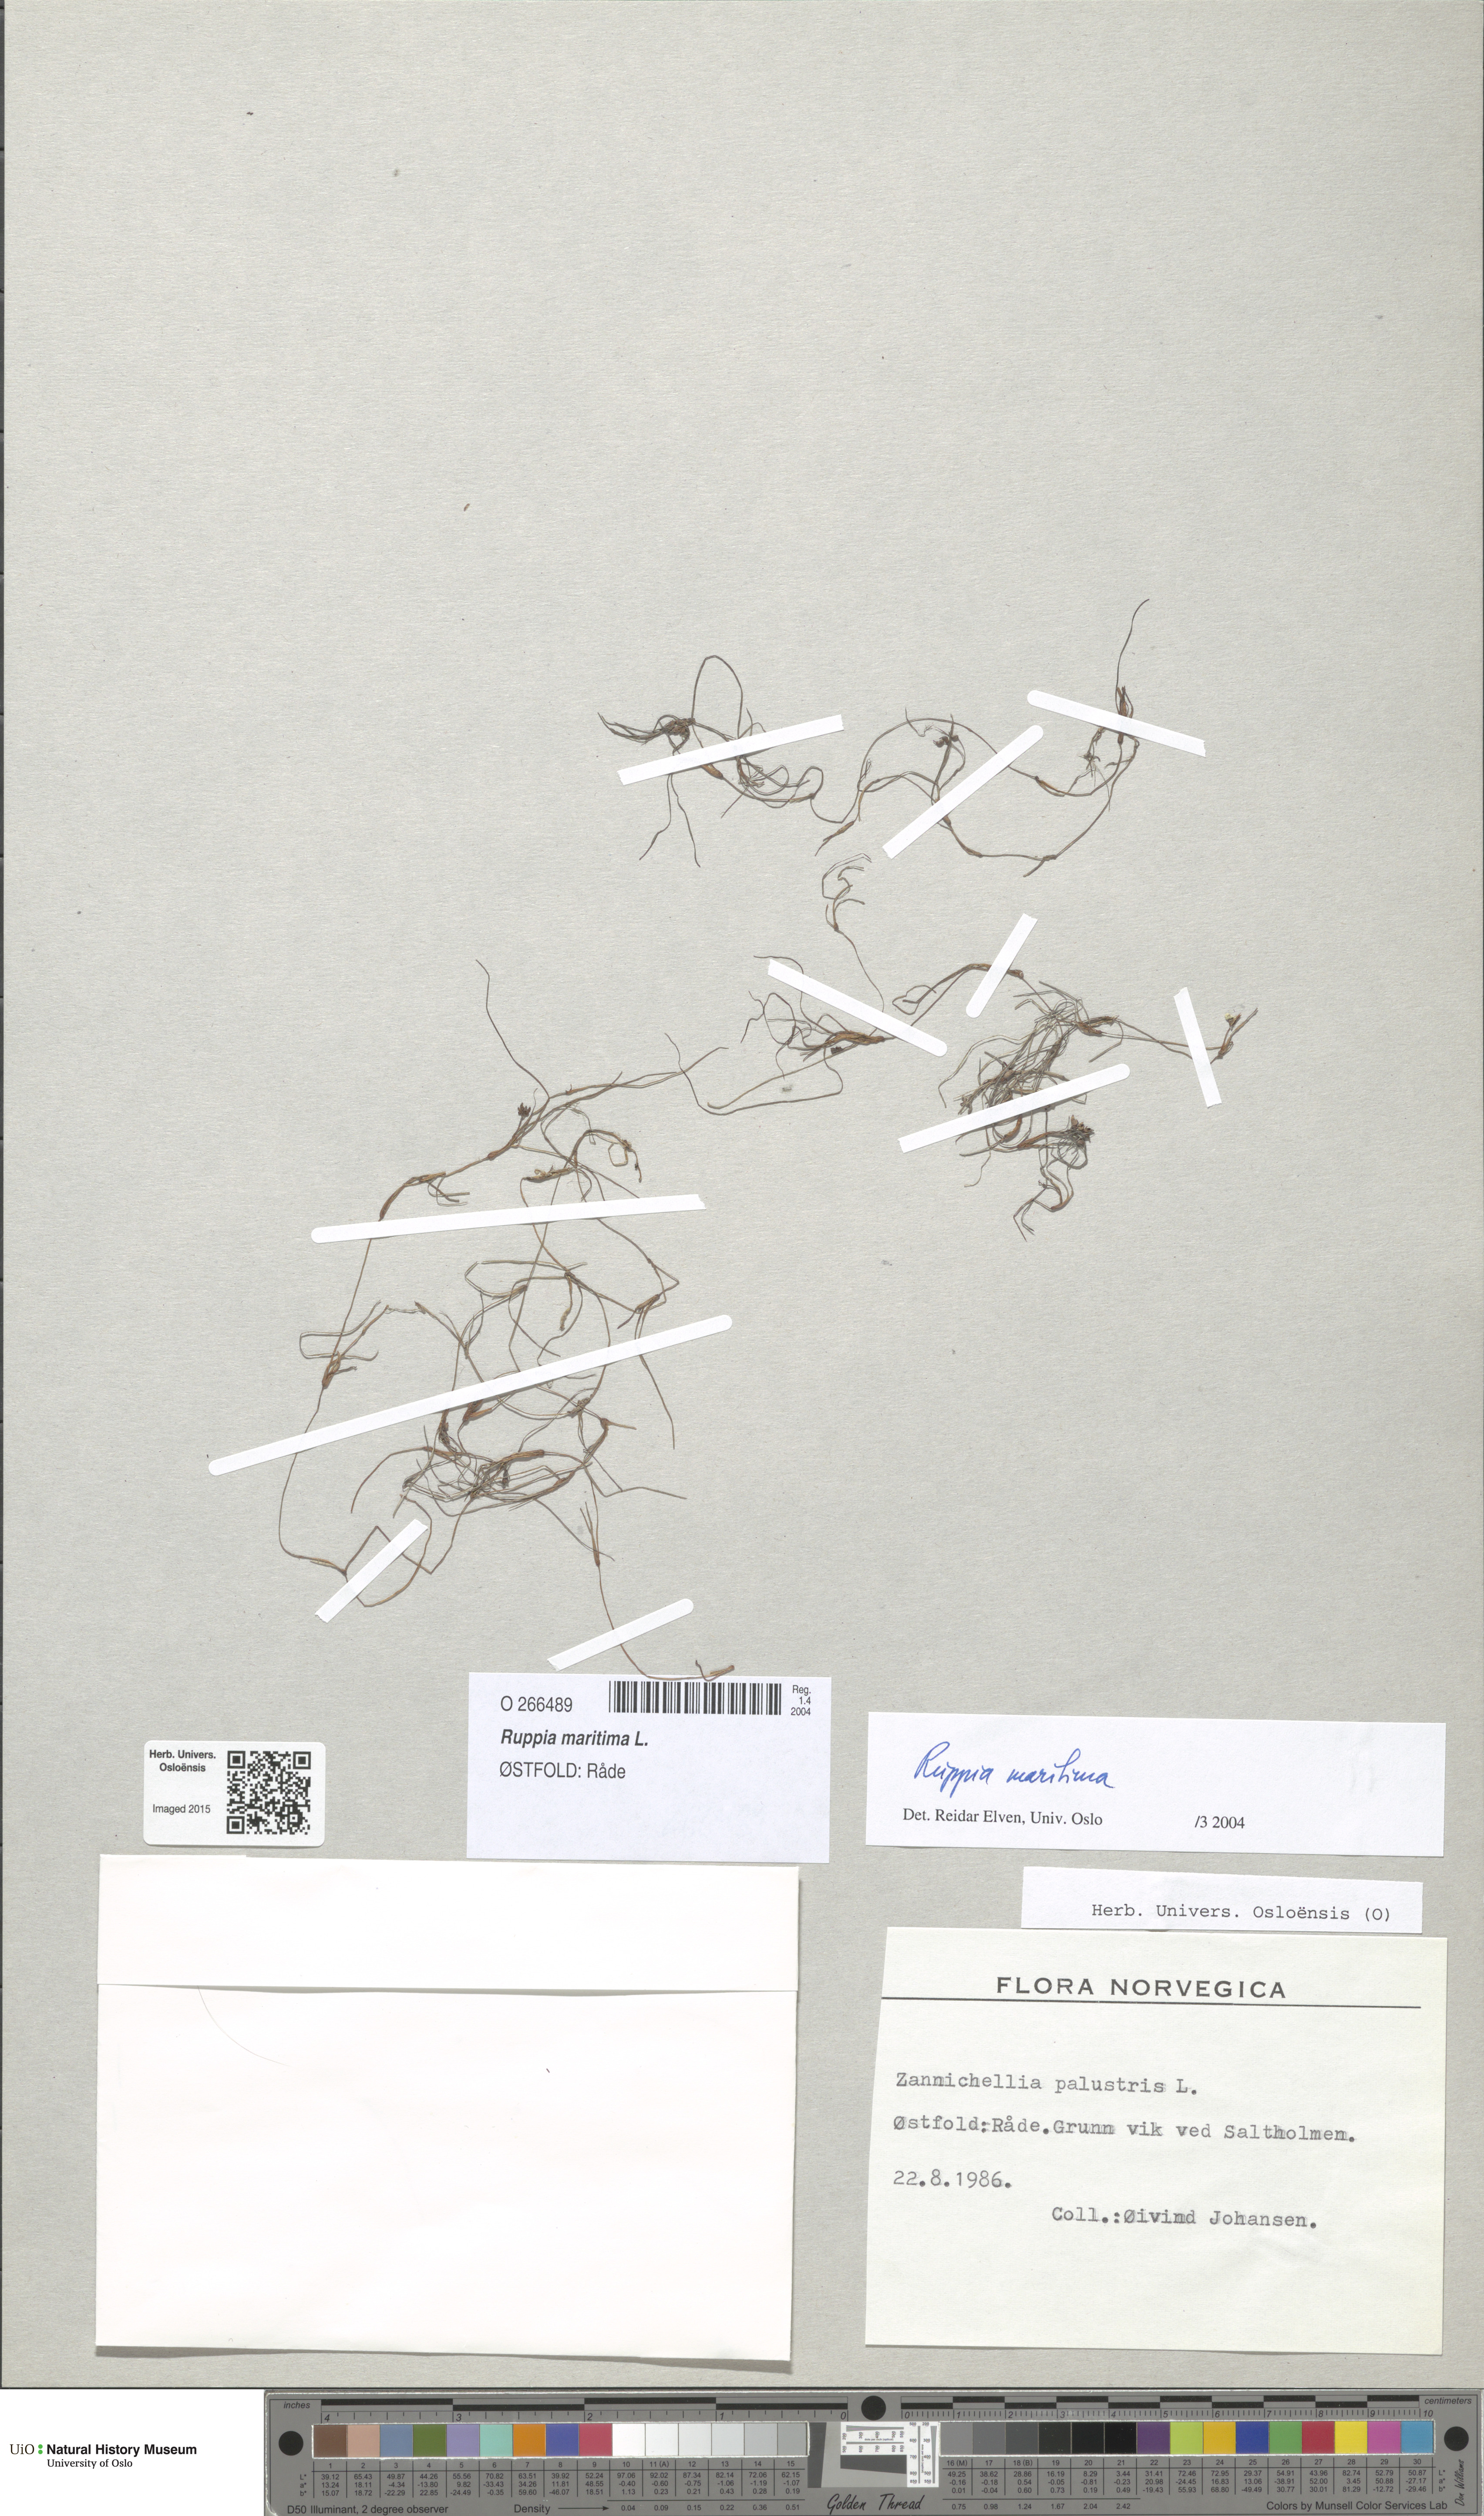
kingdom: Plantae
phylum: Tracheophyta
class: Liliopsida
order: Alismatales
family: Ruppiaceae
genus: Ruppia
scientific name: Ruppia maritima
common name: Beaked tasselweed
